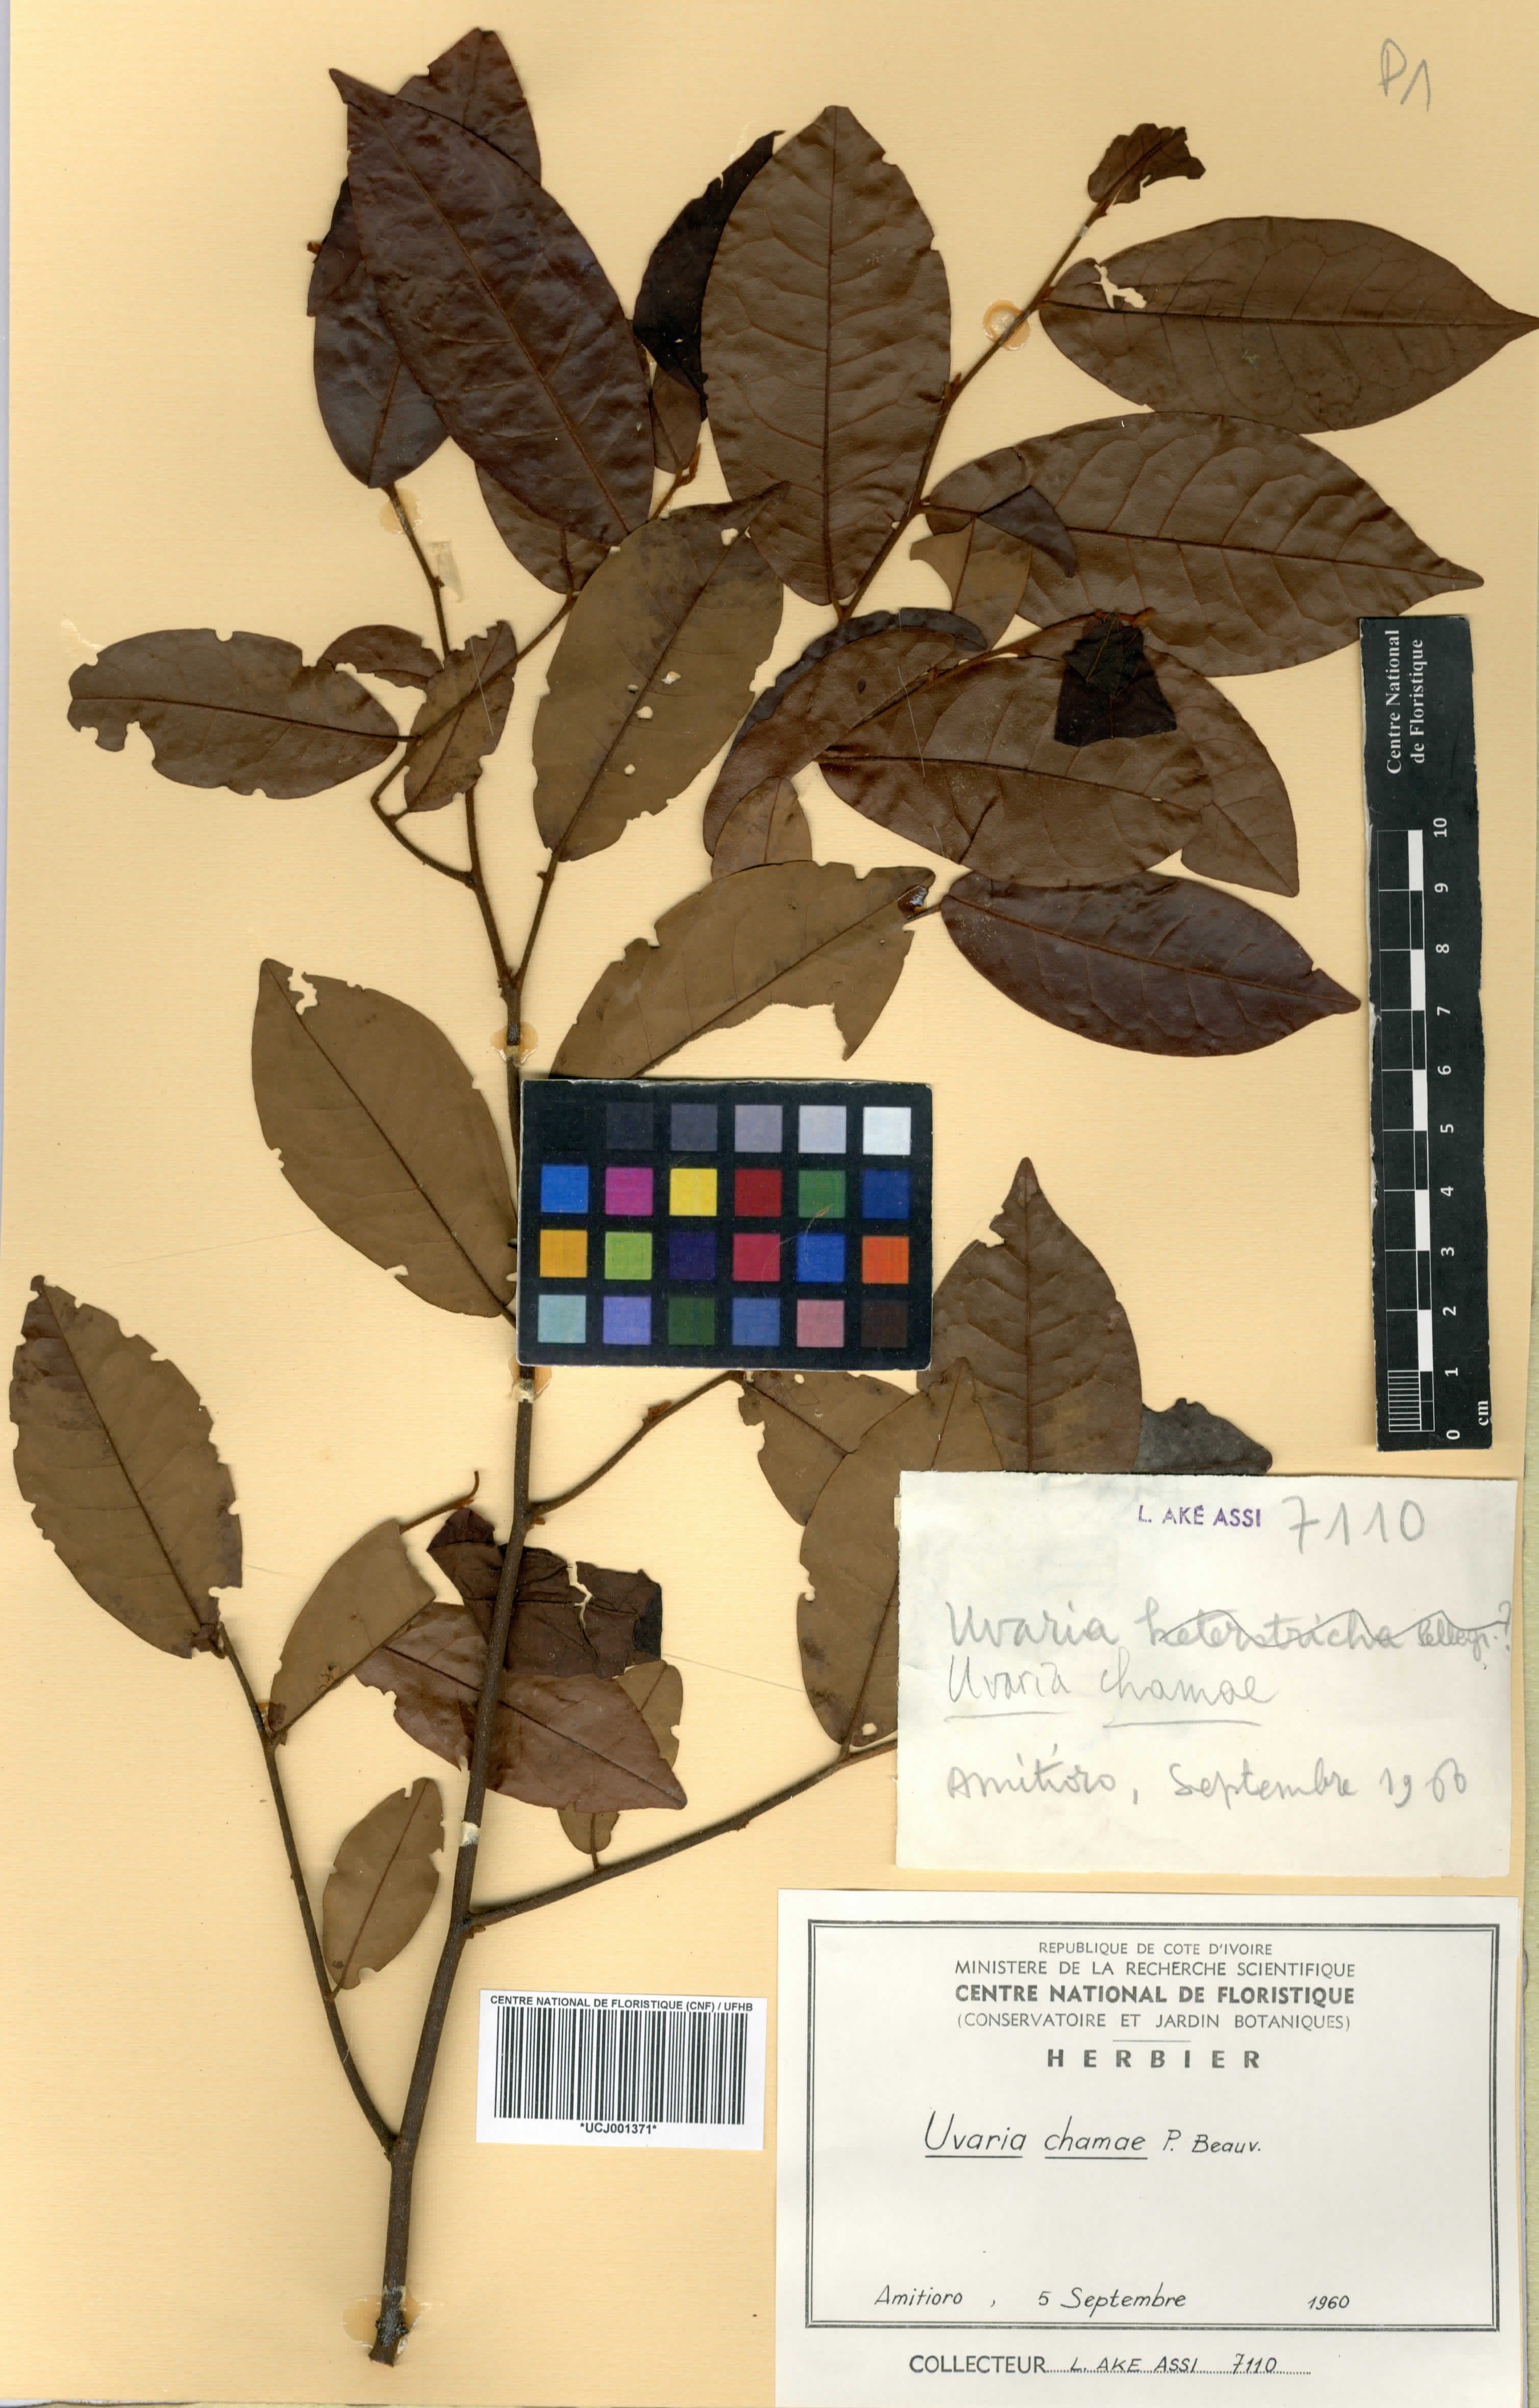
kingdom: Plantae
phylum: Tracheophyta
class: Magnoliopsida
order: Magnoliales
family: Annonaceae
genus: Uvaria
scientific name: Uvaria chamae
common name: Finger-root
